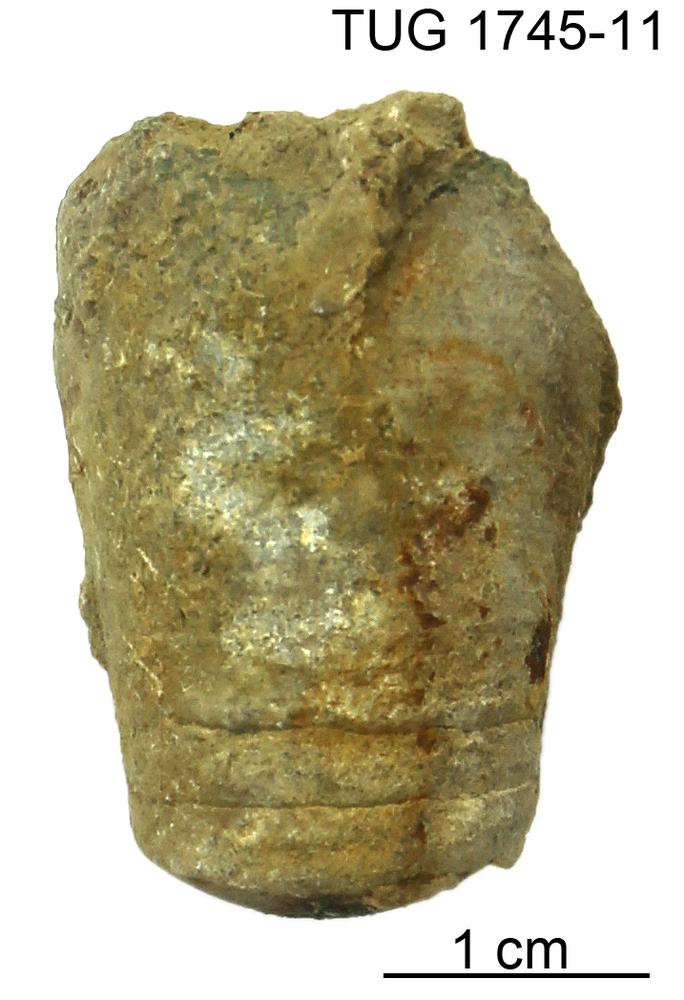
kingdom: Animalia
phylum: Mollusca
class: Cephalopoda
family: Protophragmoceratidae
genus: Kiaeroceras
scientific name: Kiaeroceras
